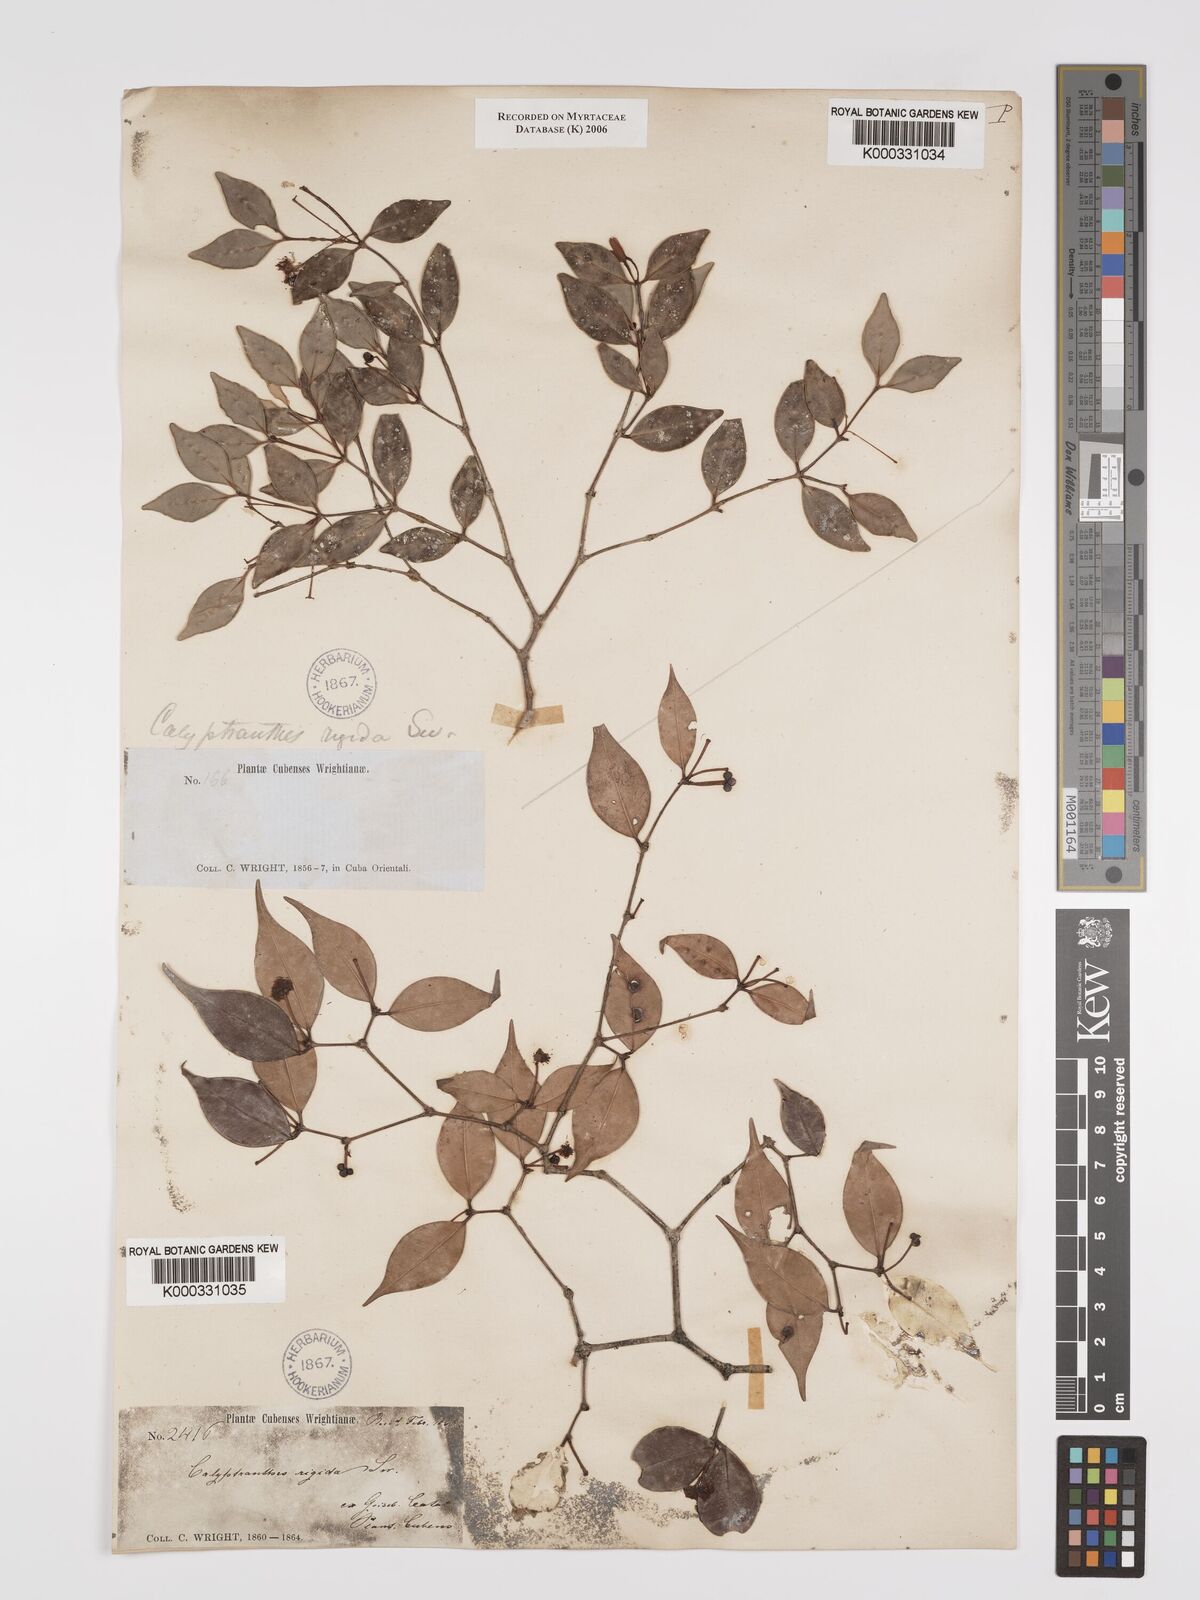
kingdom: Plantae
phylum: Tracheophyta
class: Magnoliopsida
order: Myrtales
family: Myrtaceae
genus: Myrcia
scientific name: Myrcia rigida
